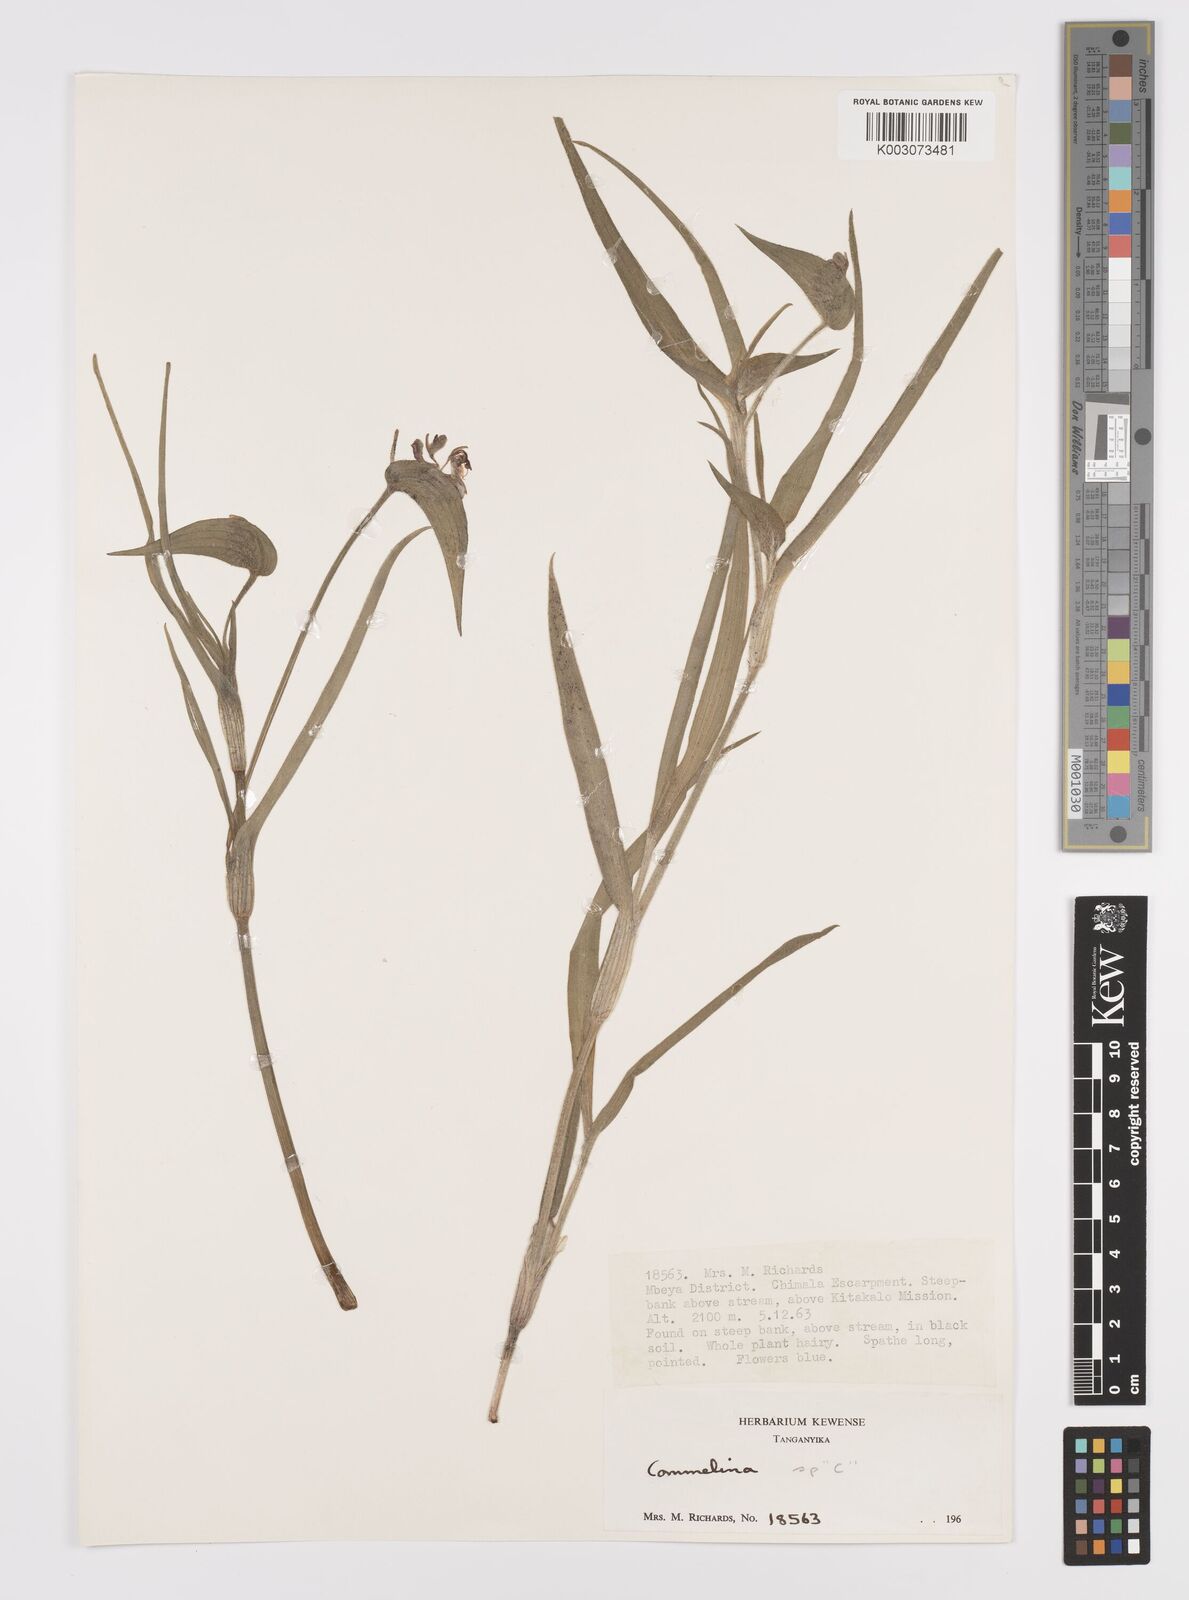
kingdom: Plantae
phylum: Tracheophyta
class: Liliopsida
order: Commelinales
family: Commelinaceae
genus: Commelina
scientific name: Commelina kituloensis
